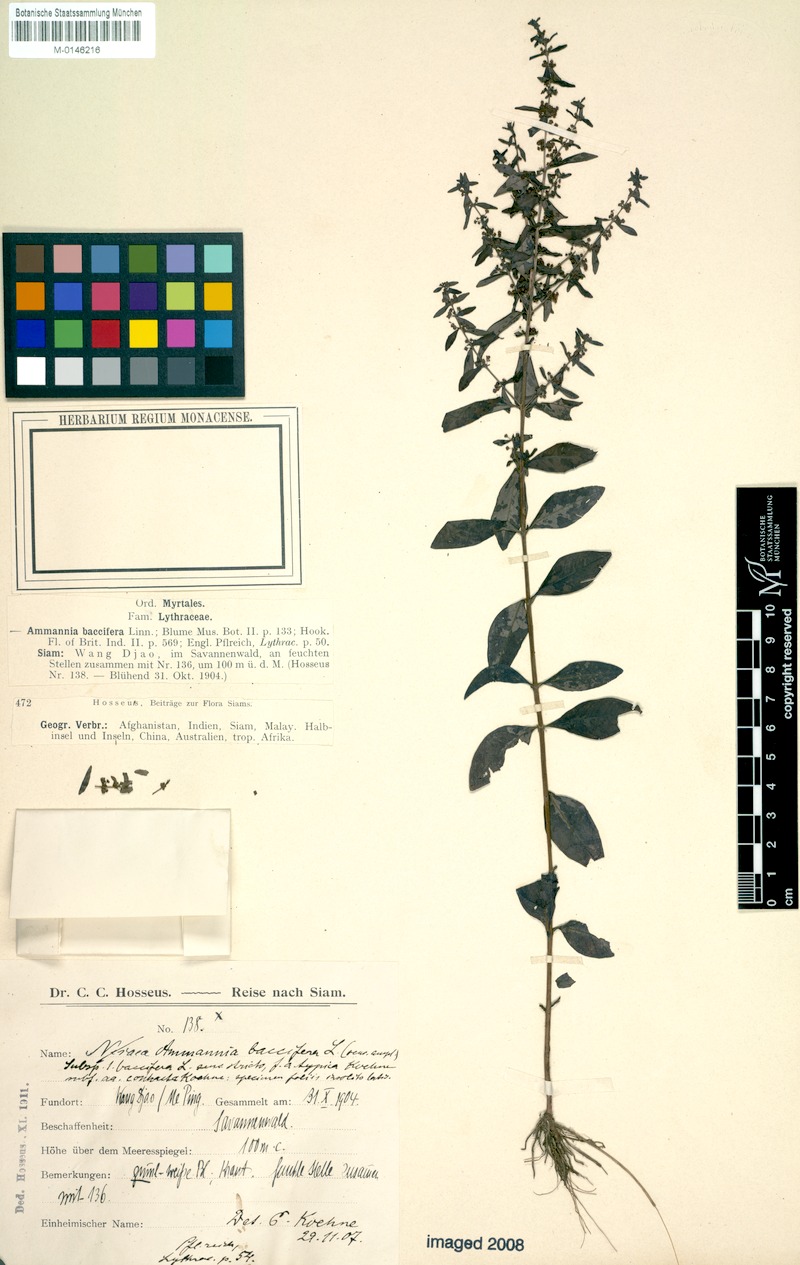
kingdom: Plantae
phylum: Tracheophyta
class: Magnoliopsida
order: Myrtales
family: Lythraceae
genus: Ammannia
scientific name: Ammannia baccifera
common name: Blistering ammania
